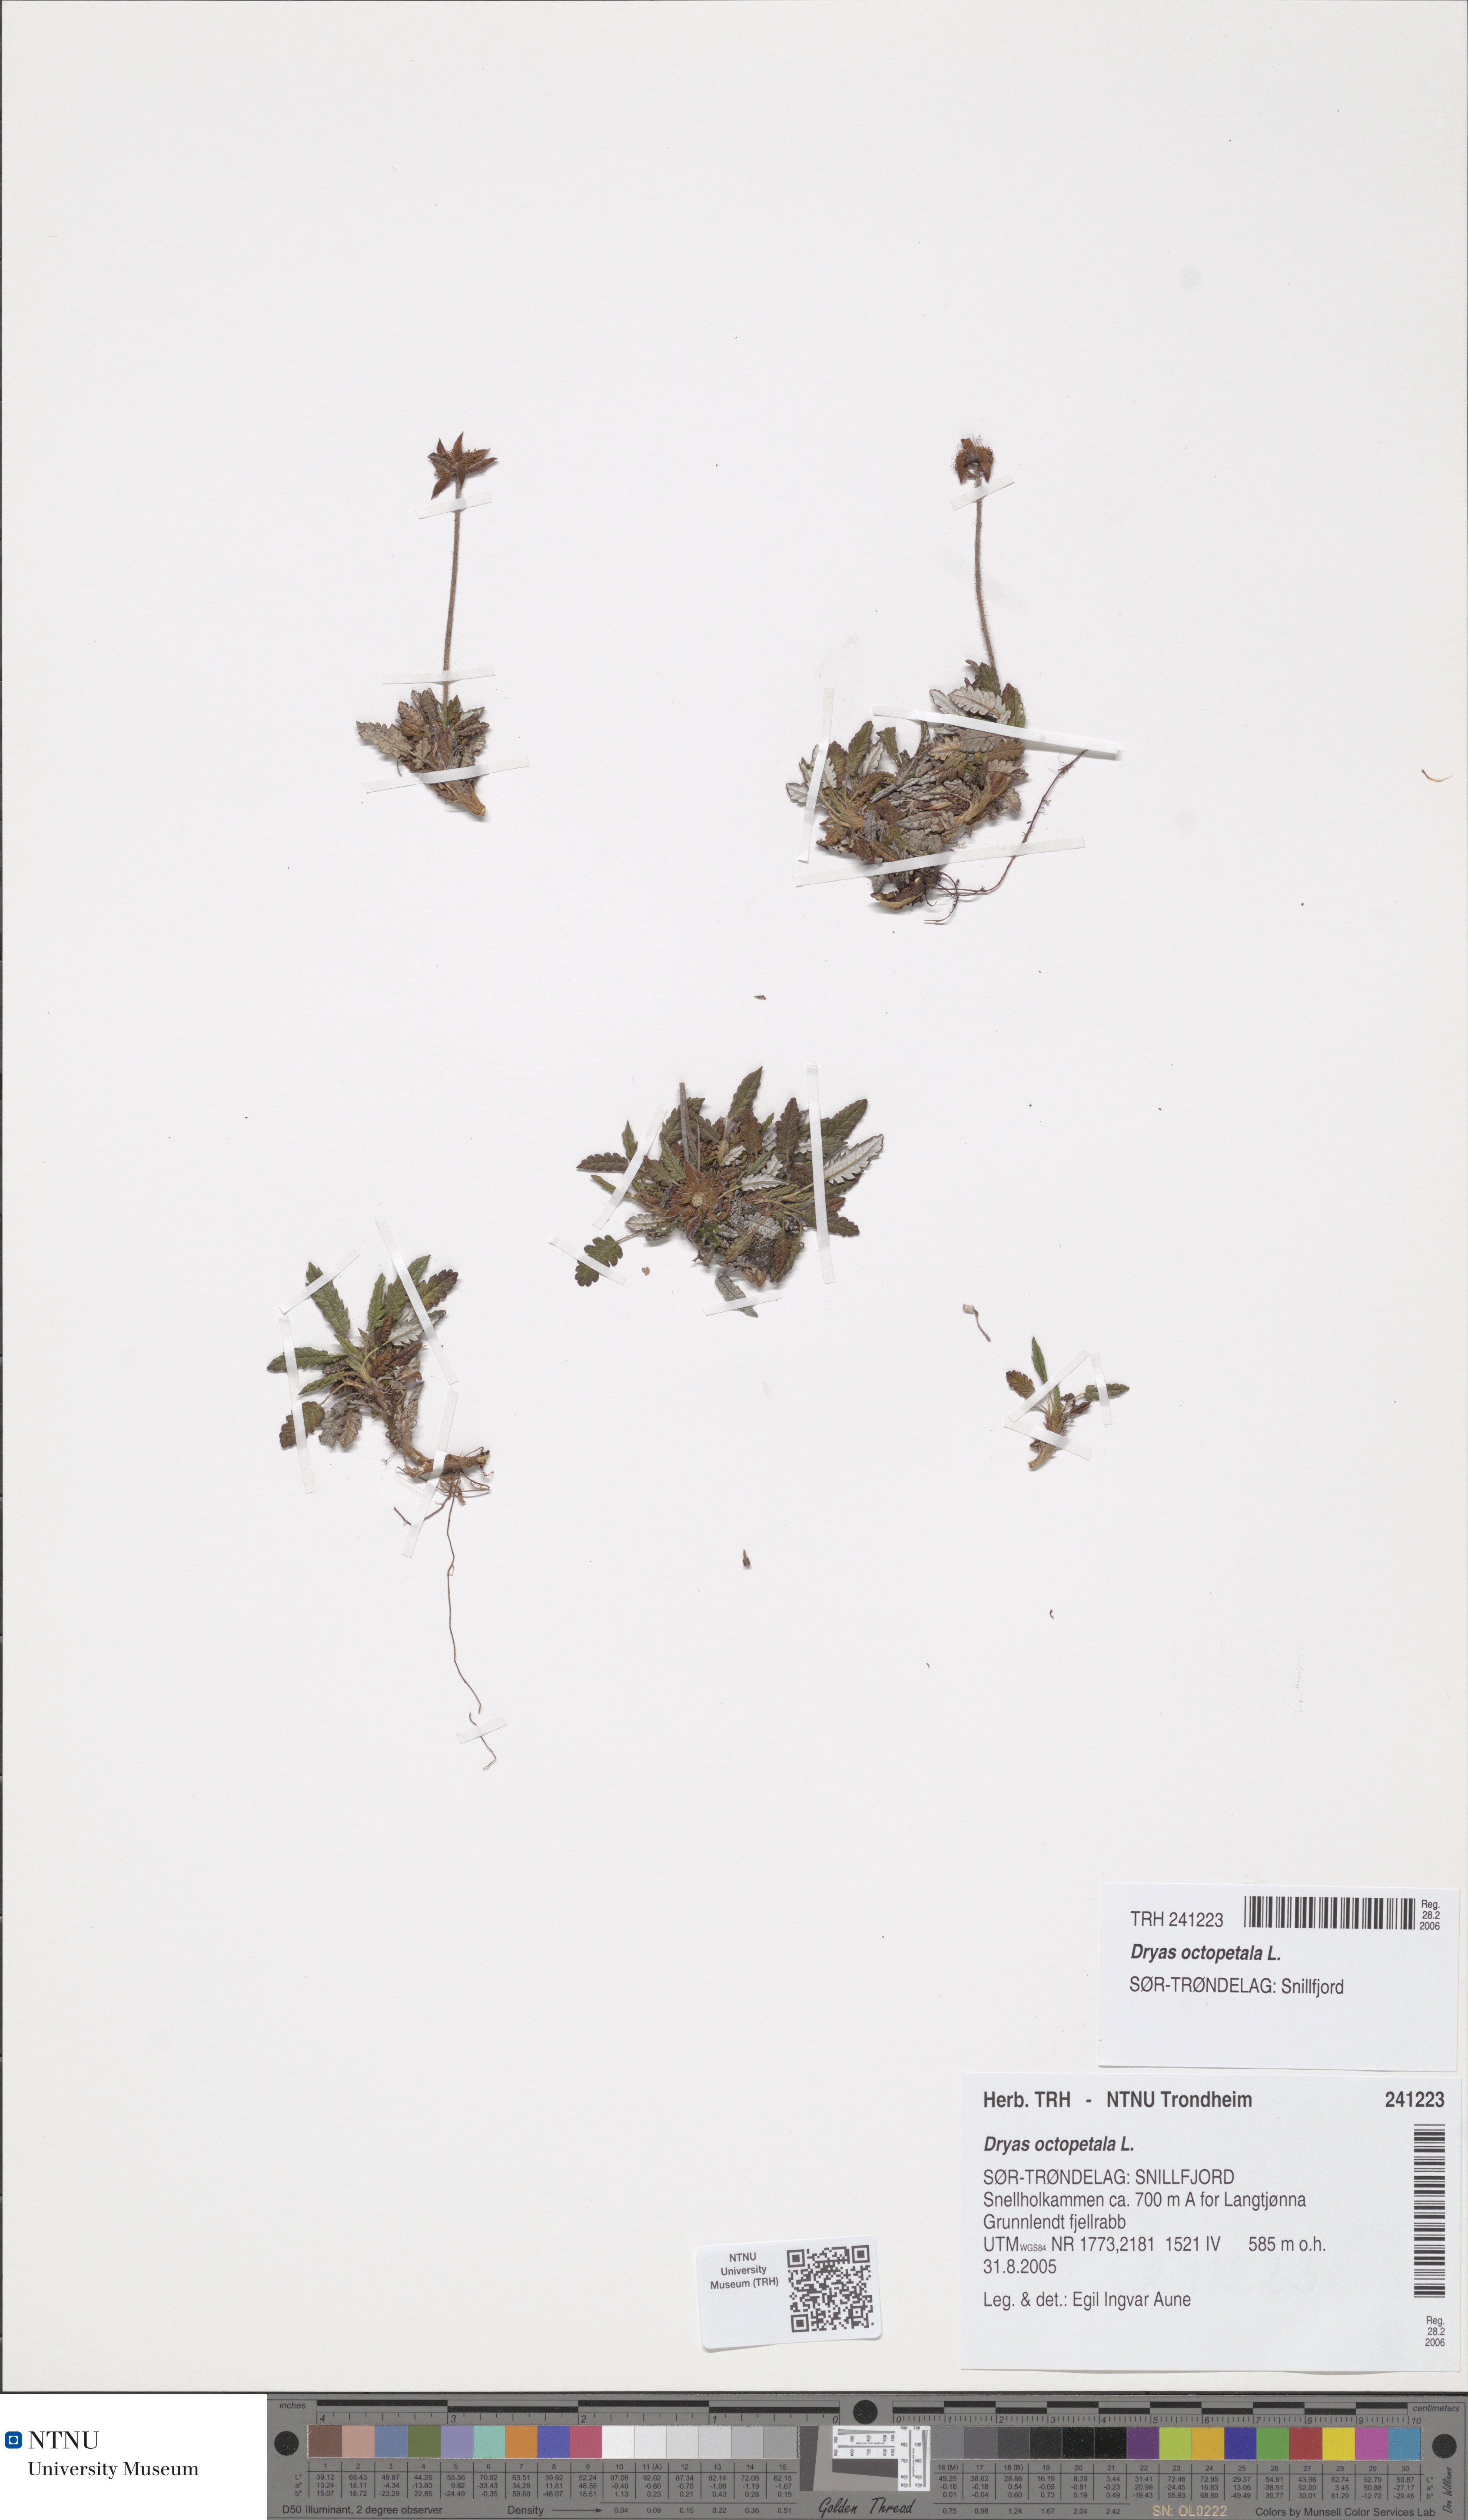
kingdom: Plantae
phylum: Tracheophyta
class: Magnoliopsida
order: Rosales
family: Rosaceae
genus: Dryas
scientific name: Dryas octopetala
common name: Eight-petal mountain-avens
